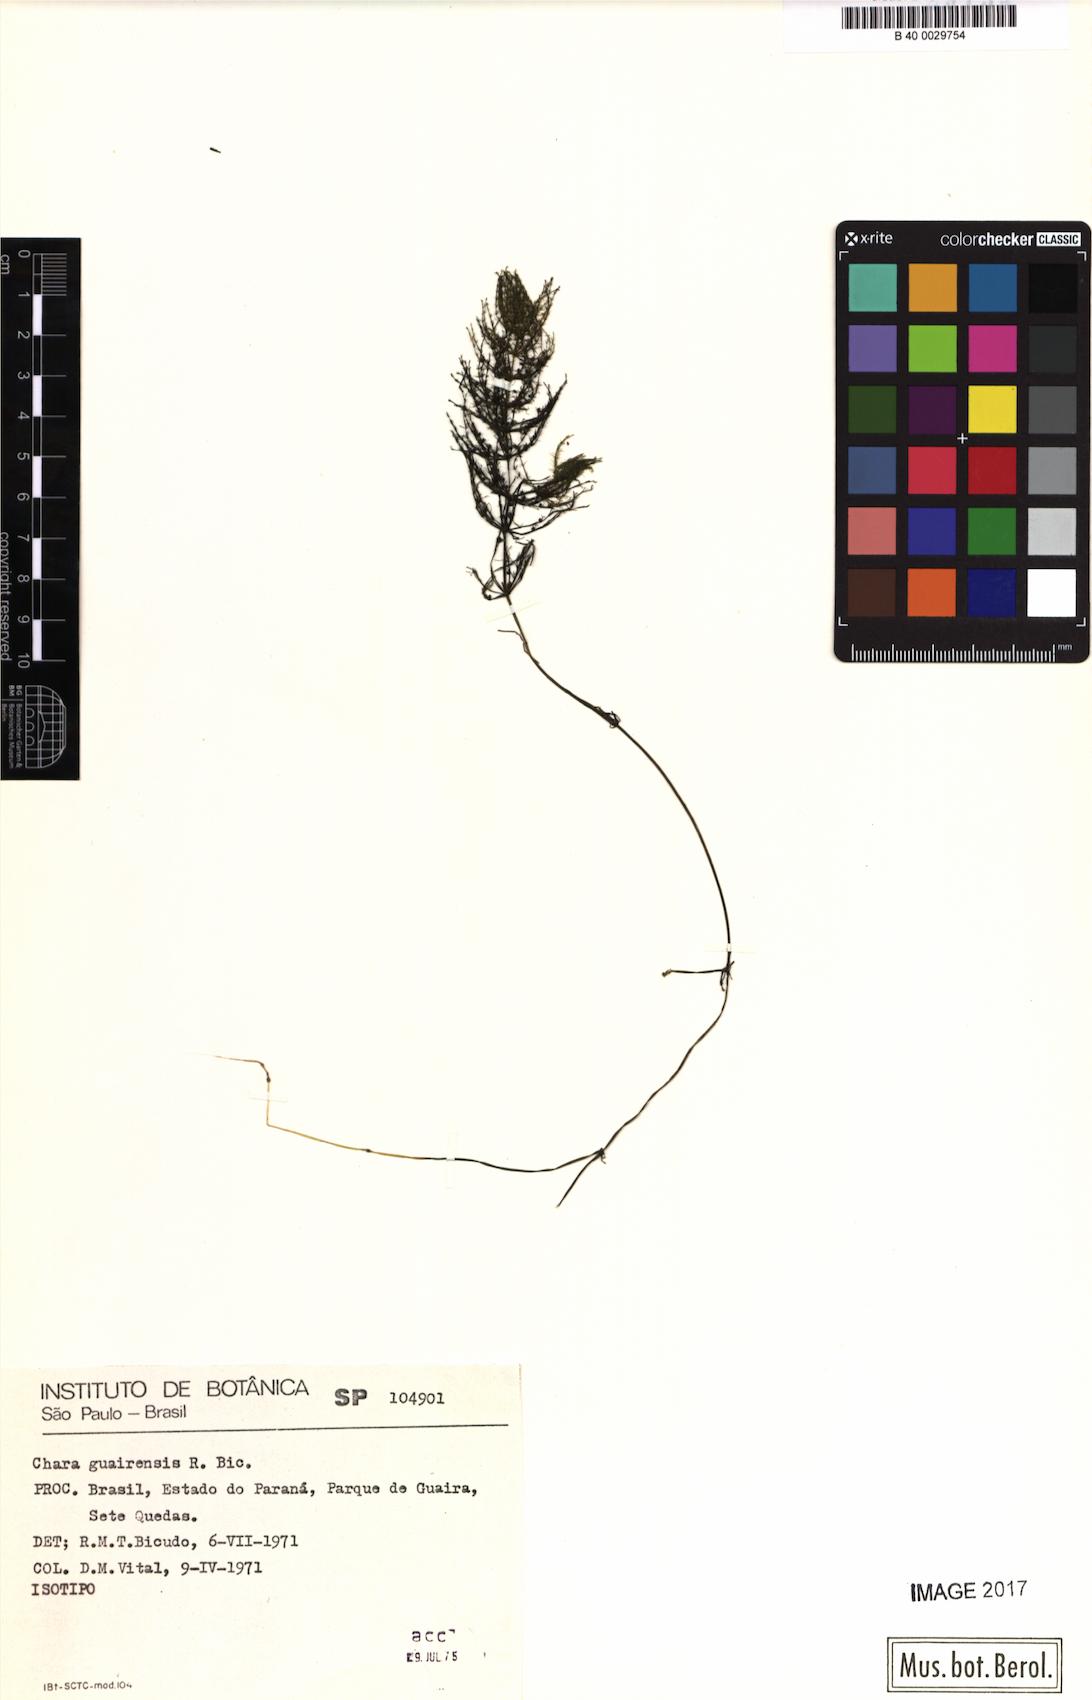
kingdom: Plantae
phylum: Charophyta
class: Charophyceae
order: Charales
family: Characeae
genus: Chara
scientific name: Chara guairensis
